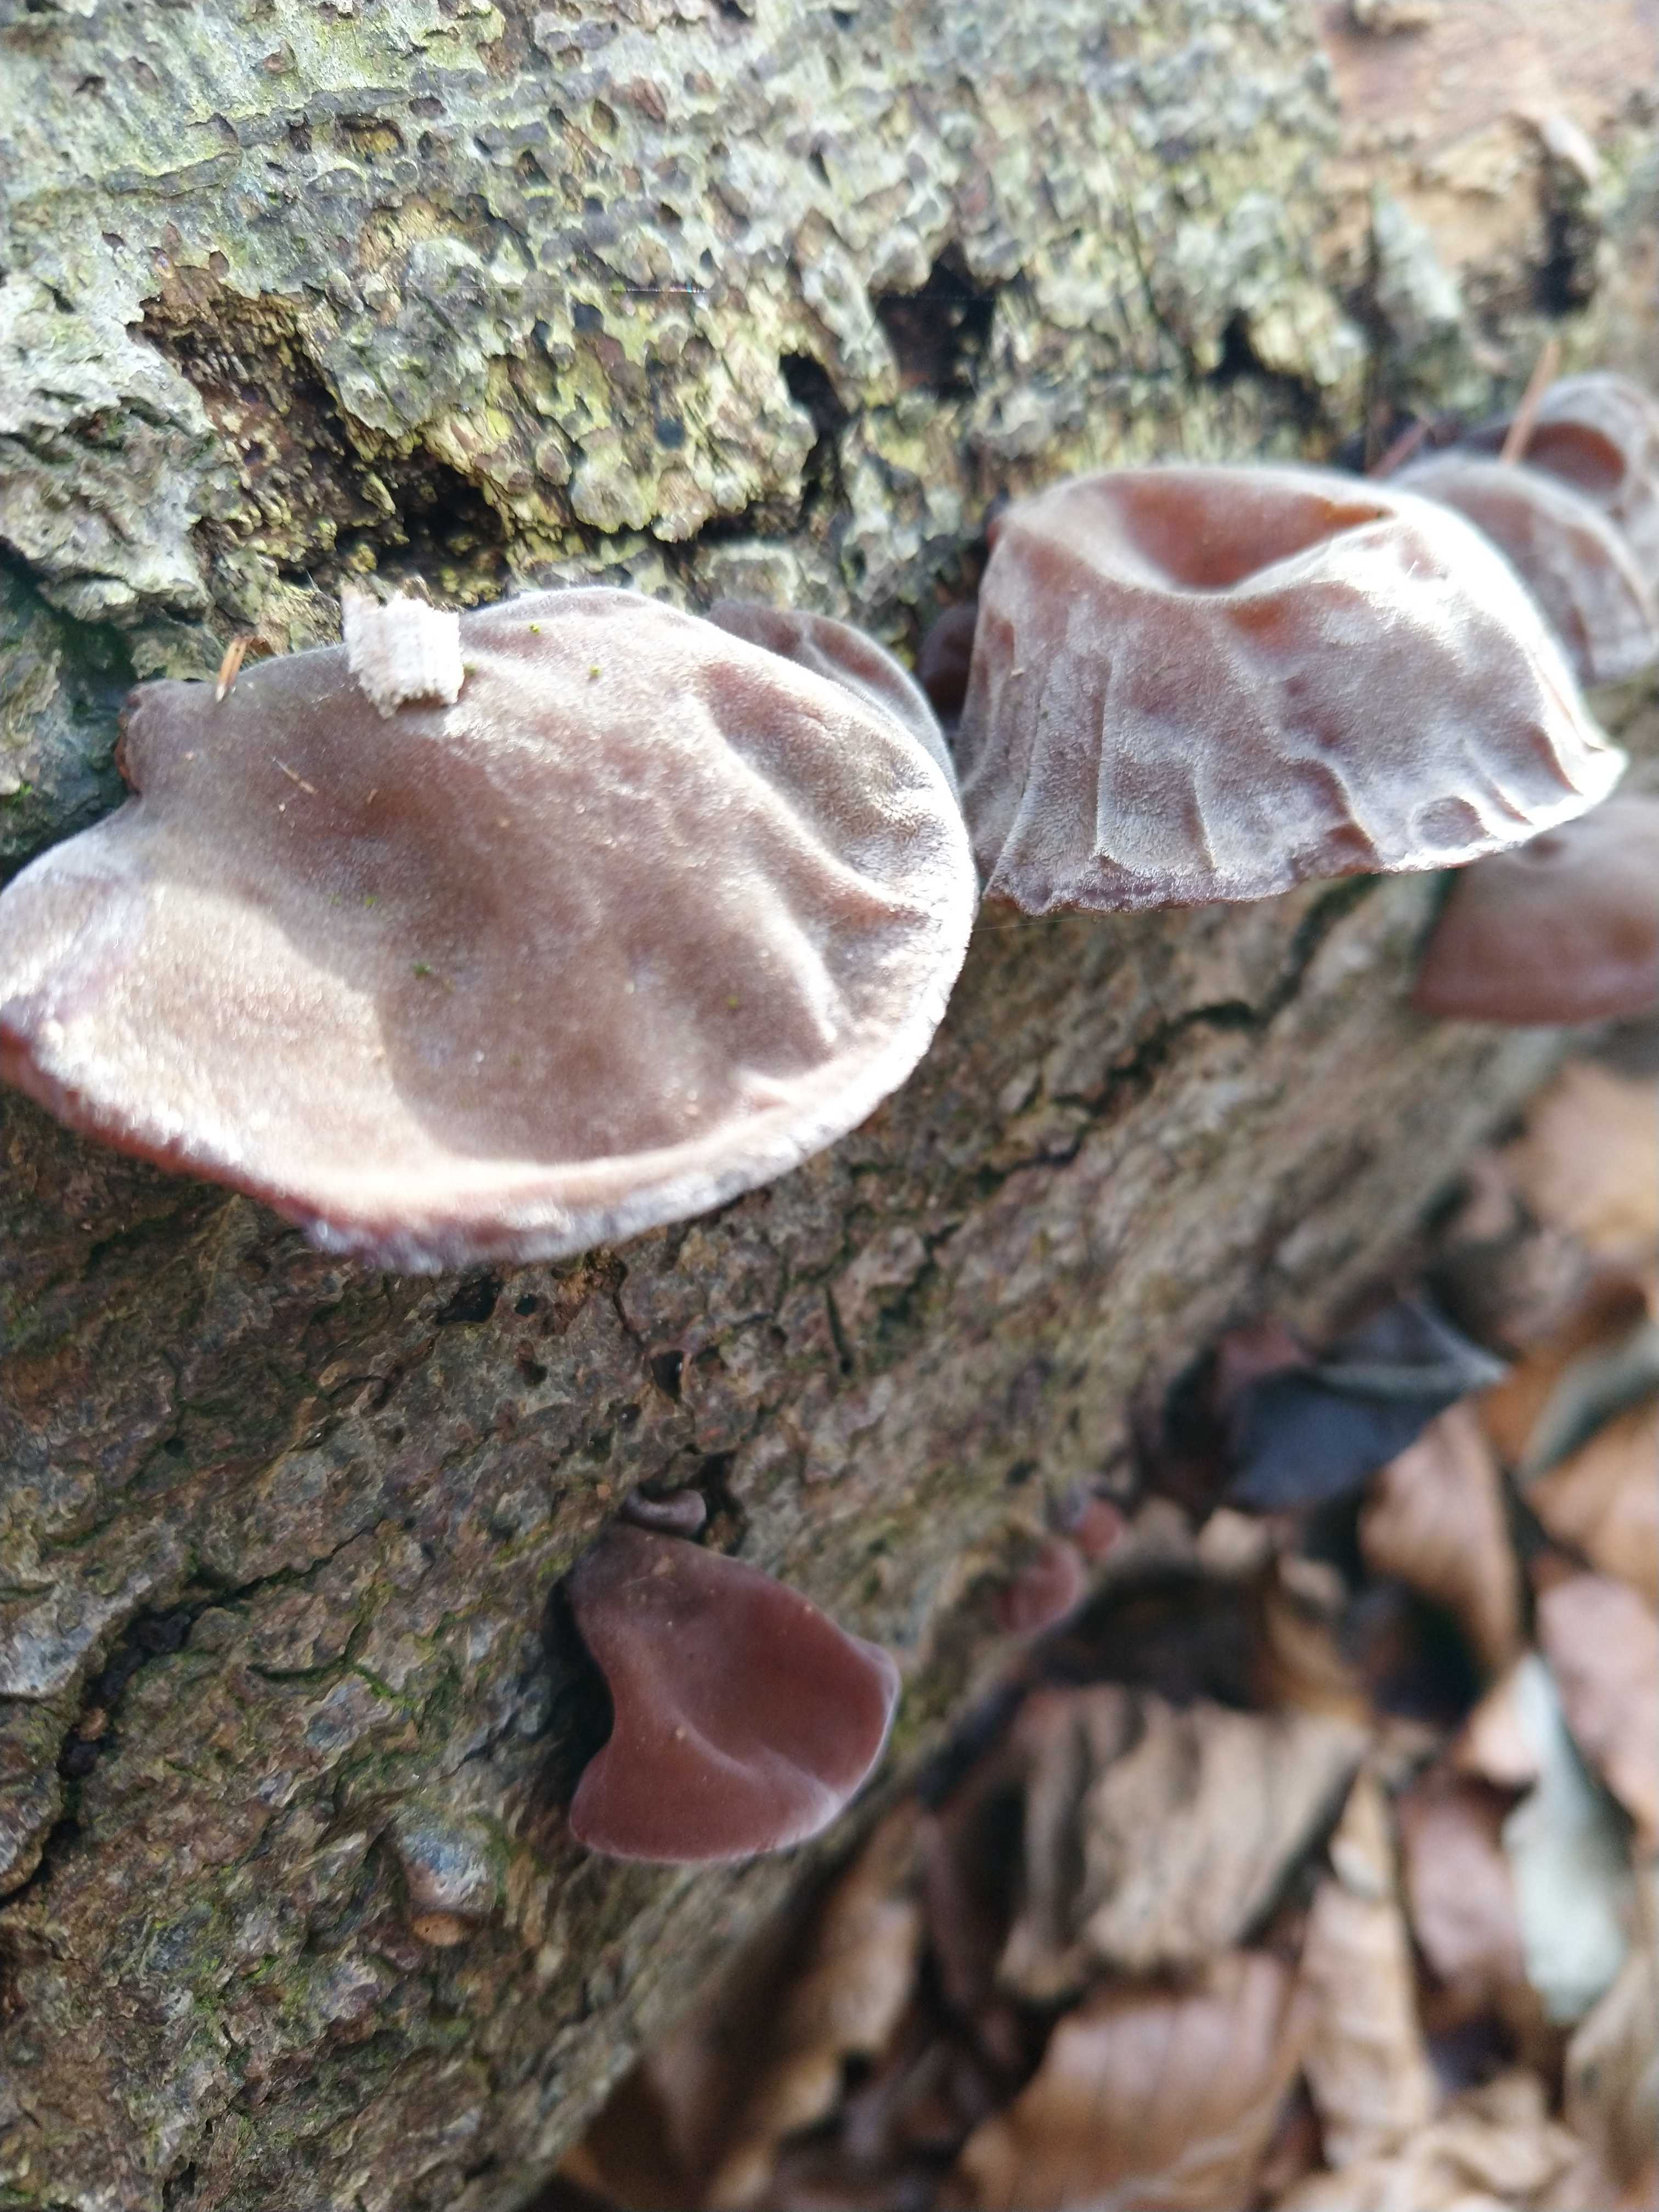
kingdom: Fungi
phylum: Basidiomycota
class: Agaricomycetes
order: Auriculariales
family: Auriculariaceae
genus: Auricularia
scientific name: Auricularia auricula-judae
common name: almindelig judasøre
